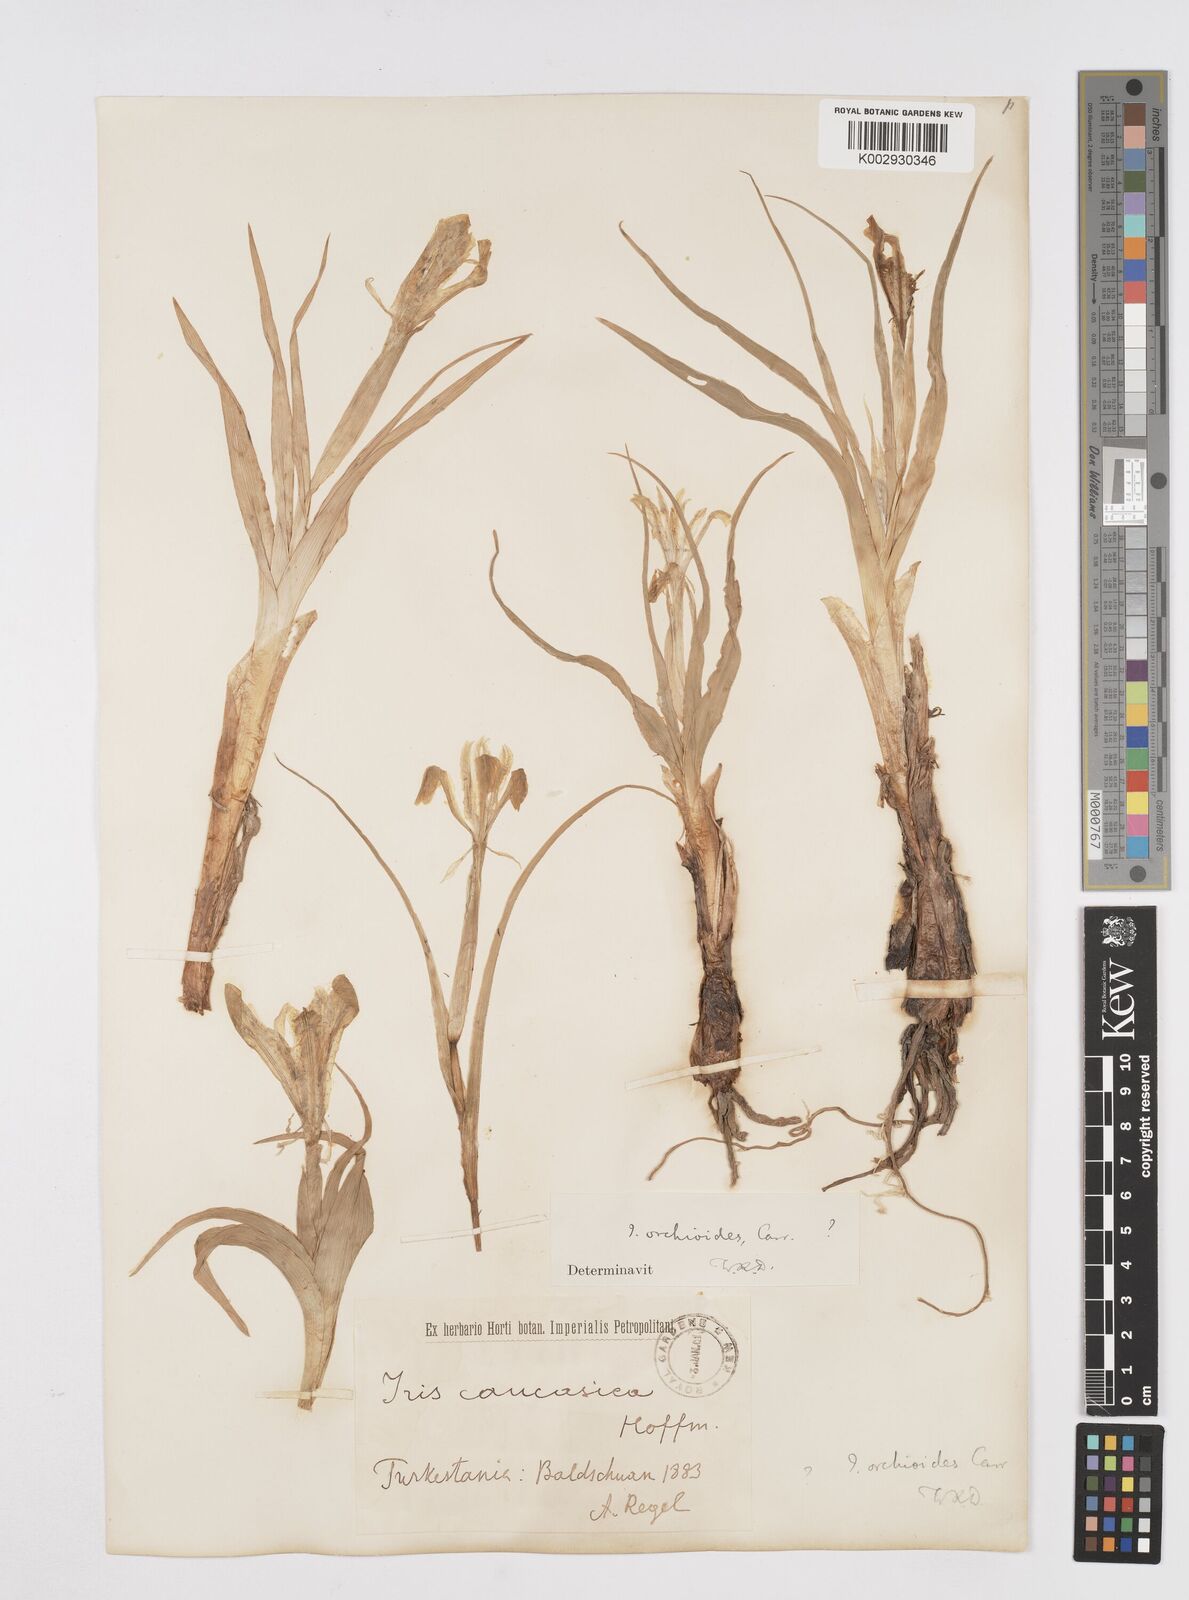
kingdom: Plantae
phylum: Tracheophyta
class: Liliopsida
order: Asparagales
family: Iridaceae
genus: Iris
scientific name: Iris orchioides
